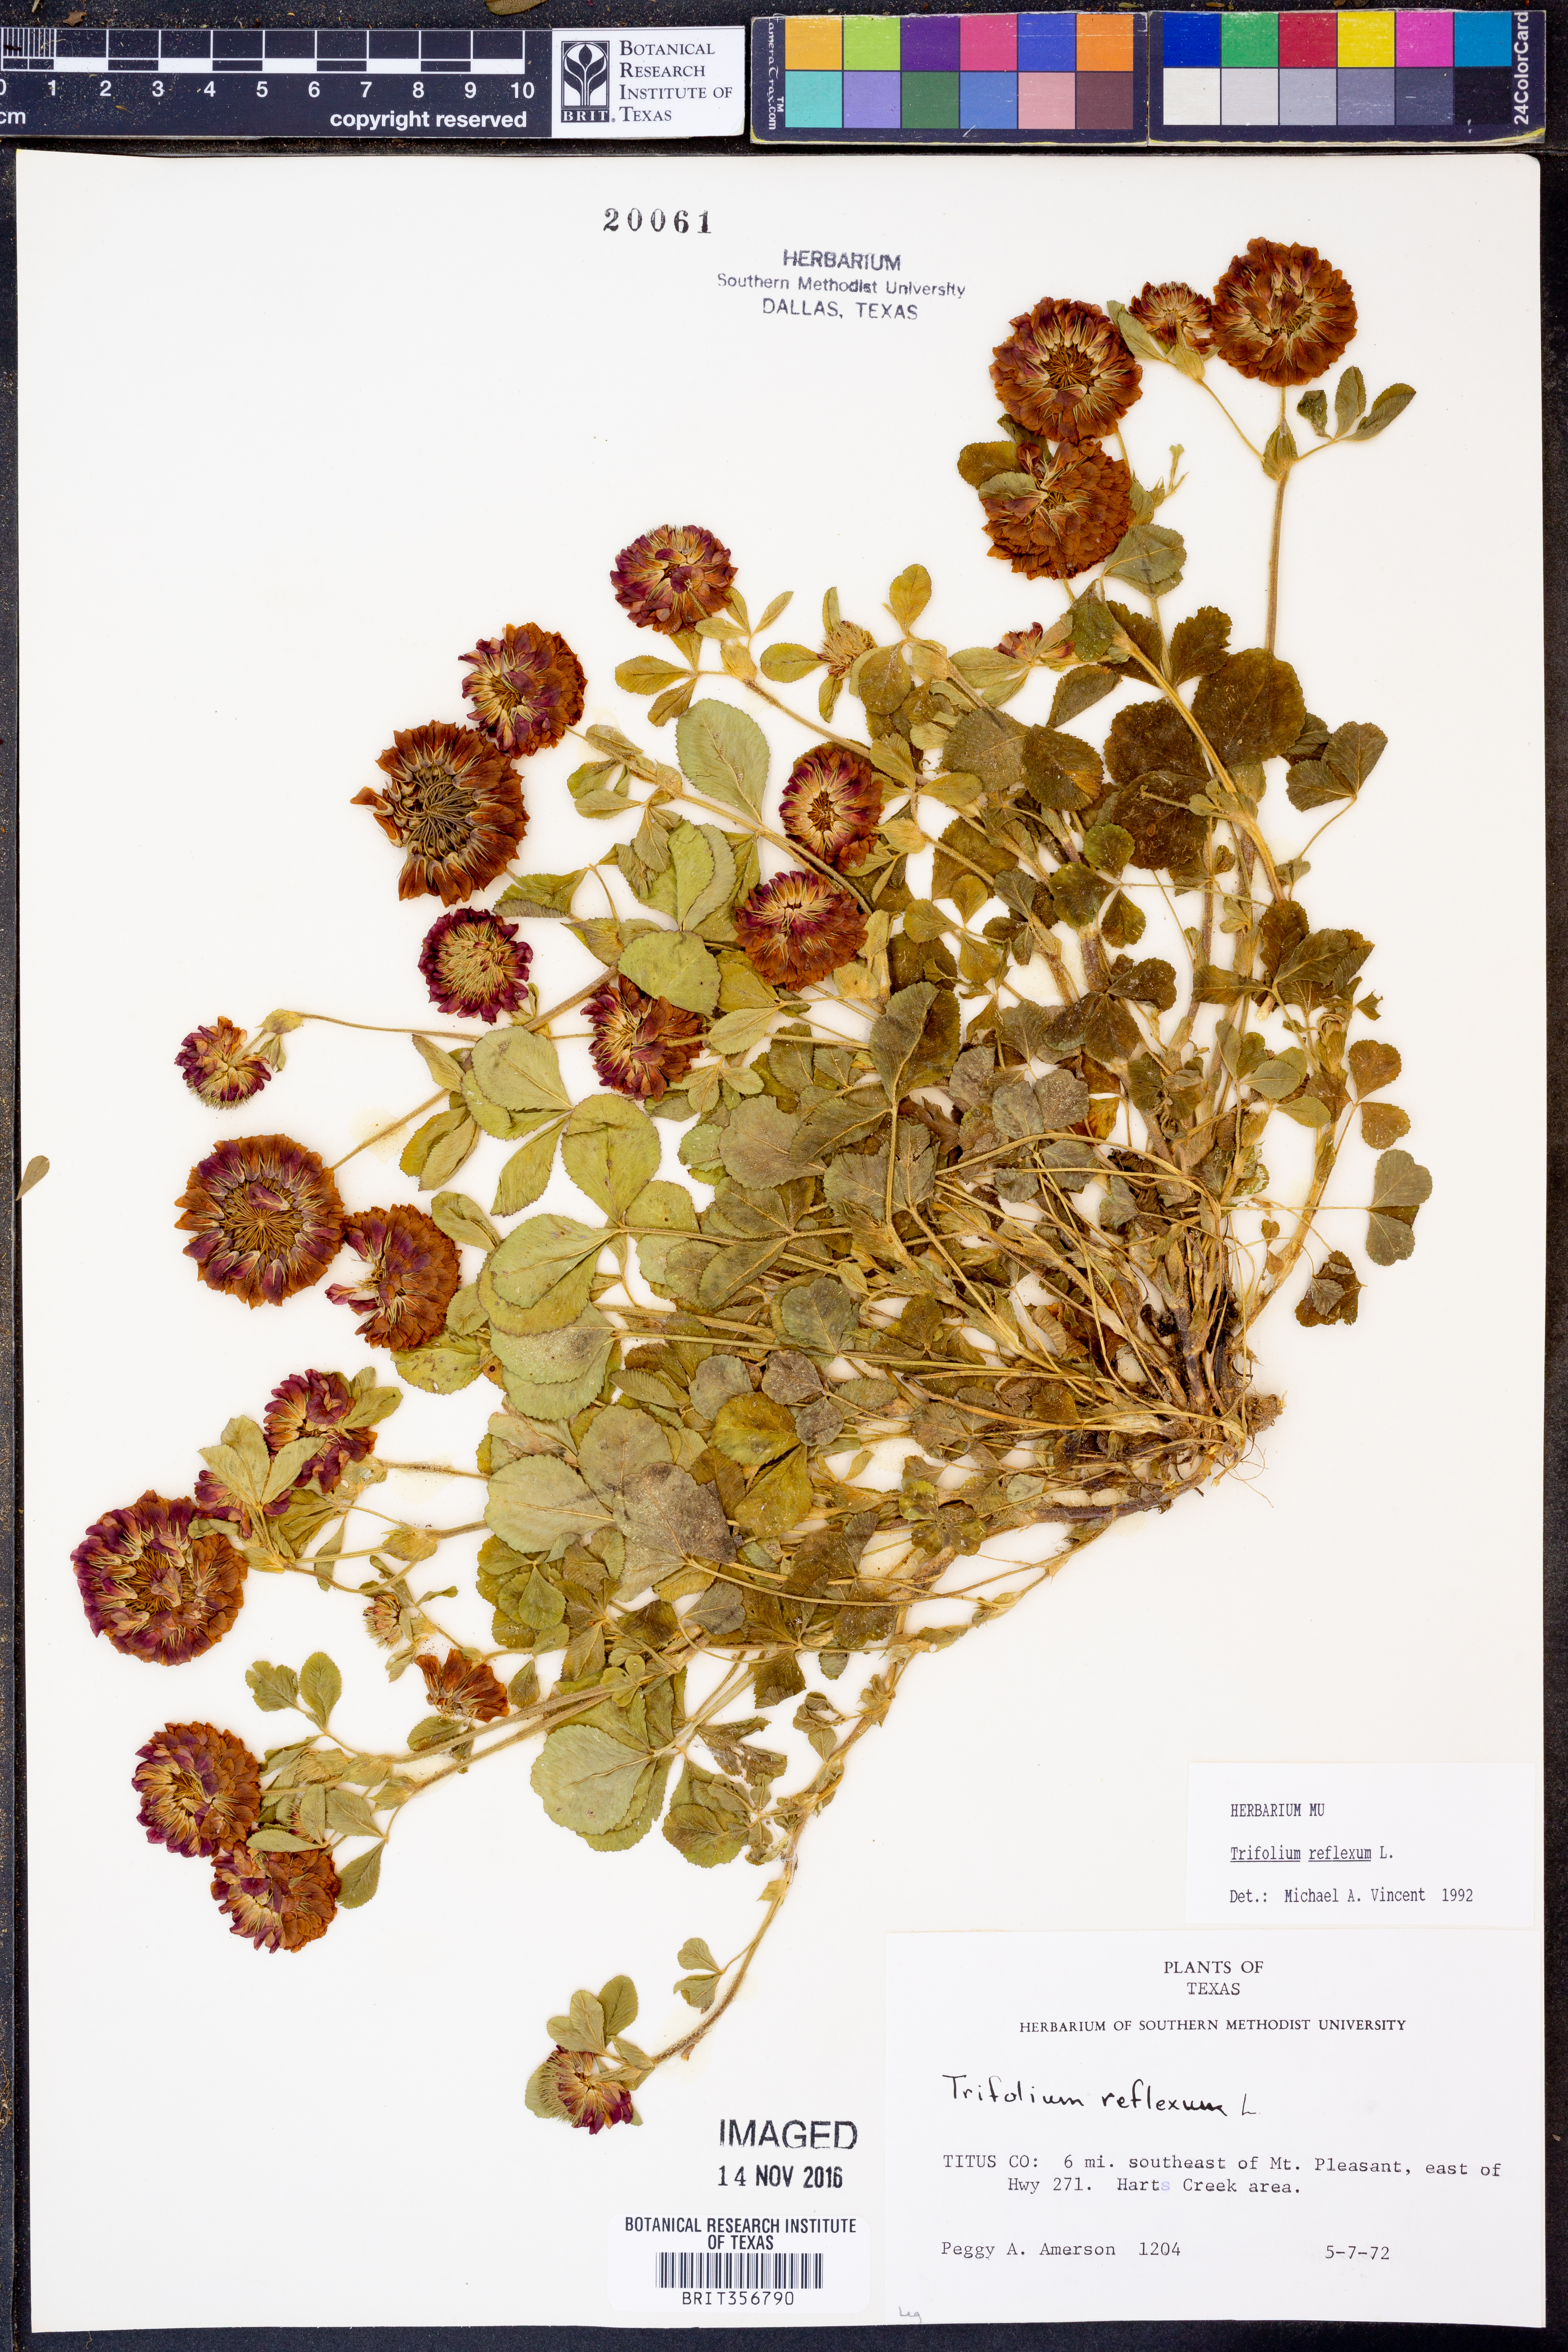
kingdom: Plantae
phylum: Tracheophyta
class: Magnoliopsida
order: Fabales
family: Fabaceae
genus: Trifolium
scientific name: Trifolium reflexum
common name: Buffalo clover
